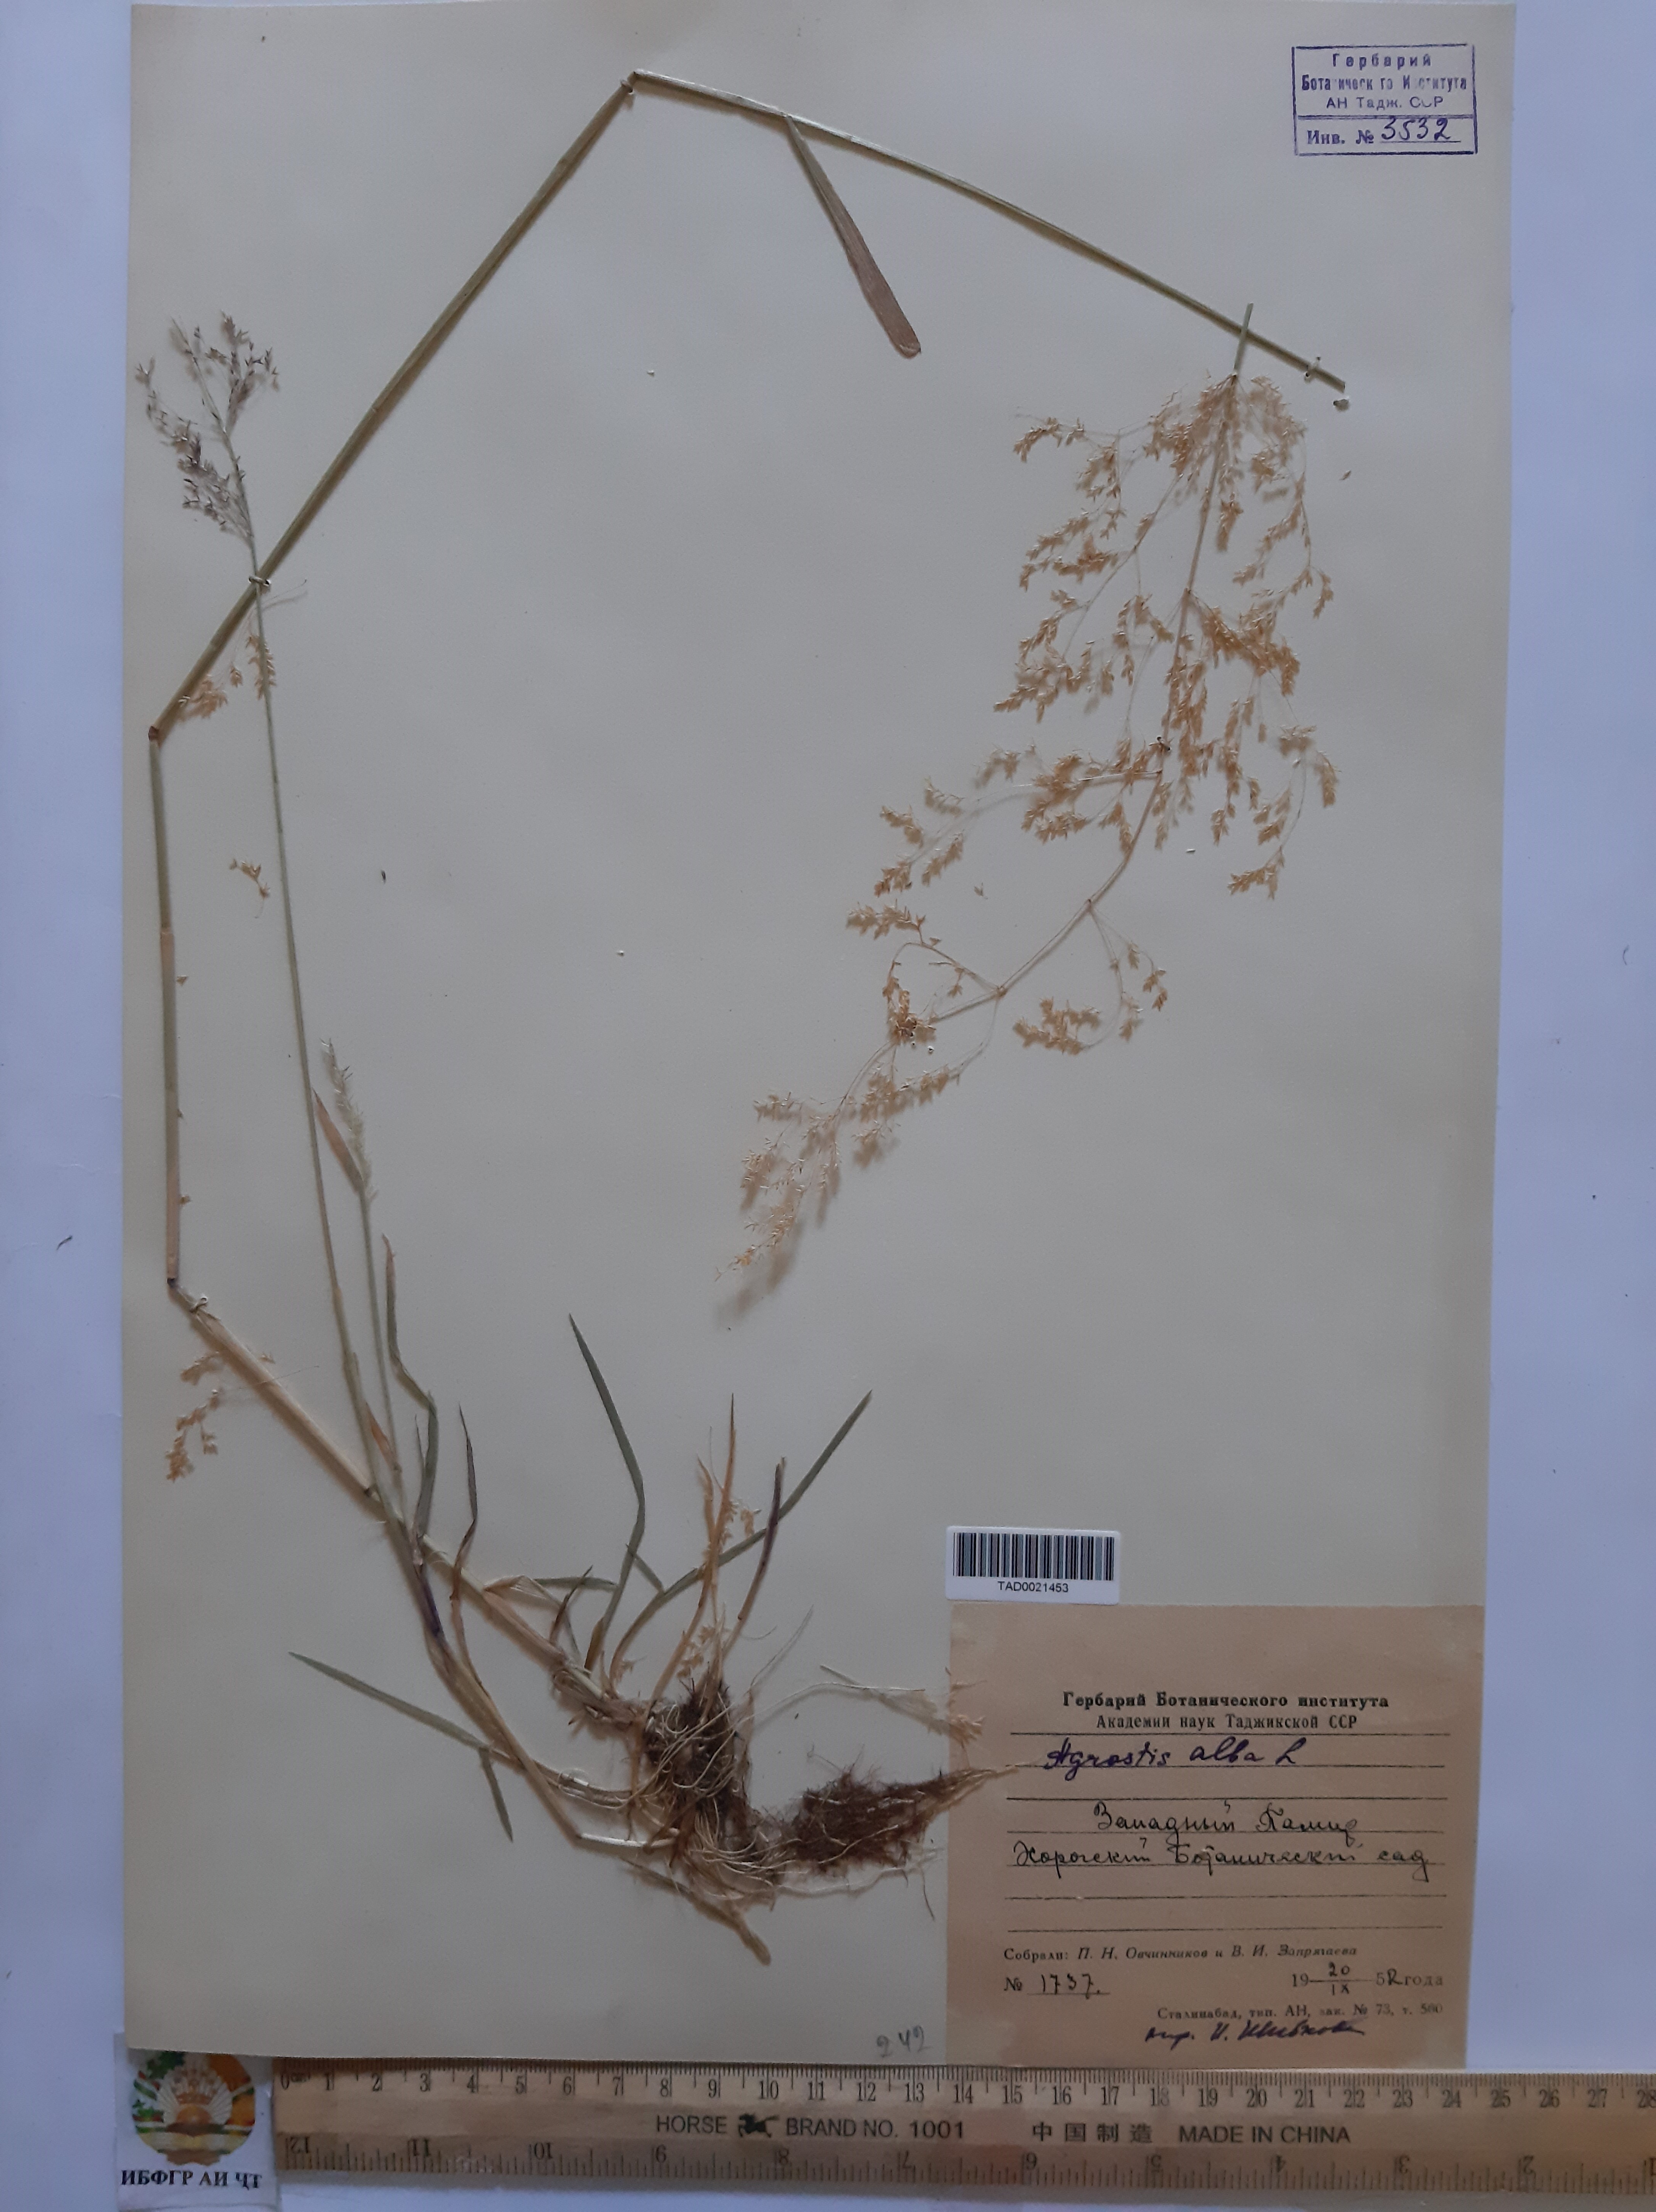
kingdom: Plantae
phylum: Tracheophyta
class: Liliopsida
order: Poales
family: Poaceae
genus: Poa
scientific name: Poa nemoralis
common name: Wood bluegrass
